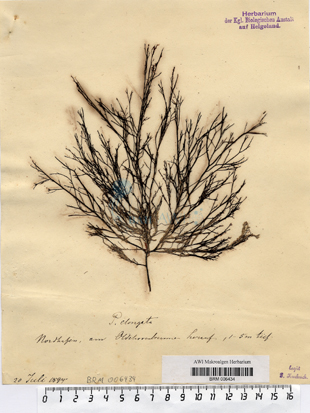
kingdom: Plantae
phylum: Rhodophyta
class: Florideophyceae
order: Ceramiales
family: Rhodomelaceae
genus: Vertebrata
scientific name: Vertebrata spec
